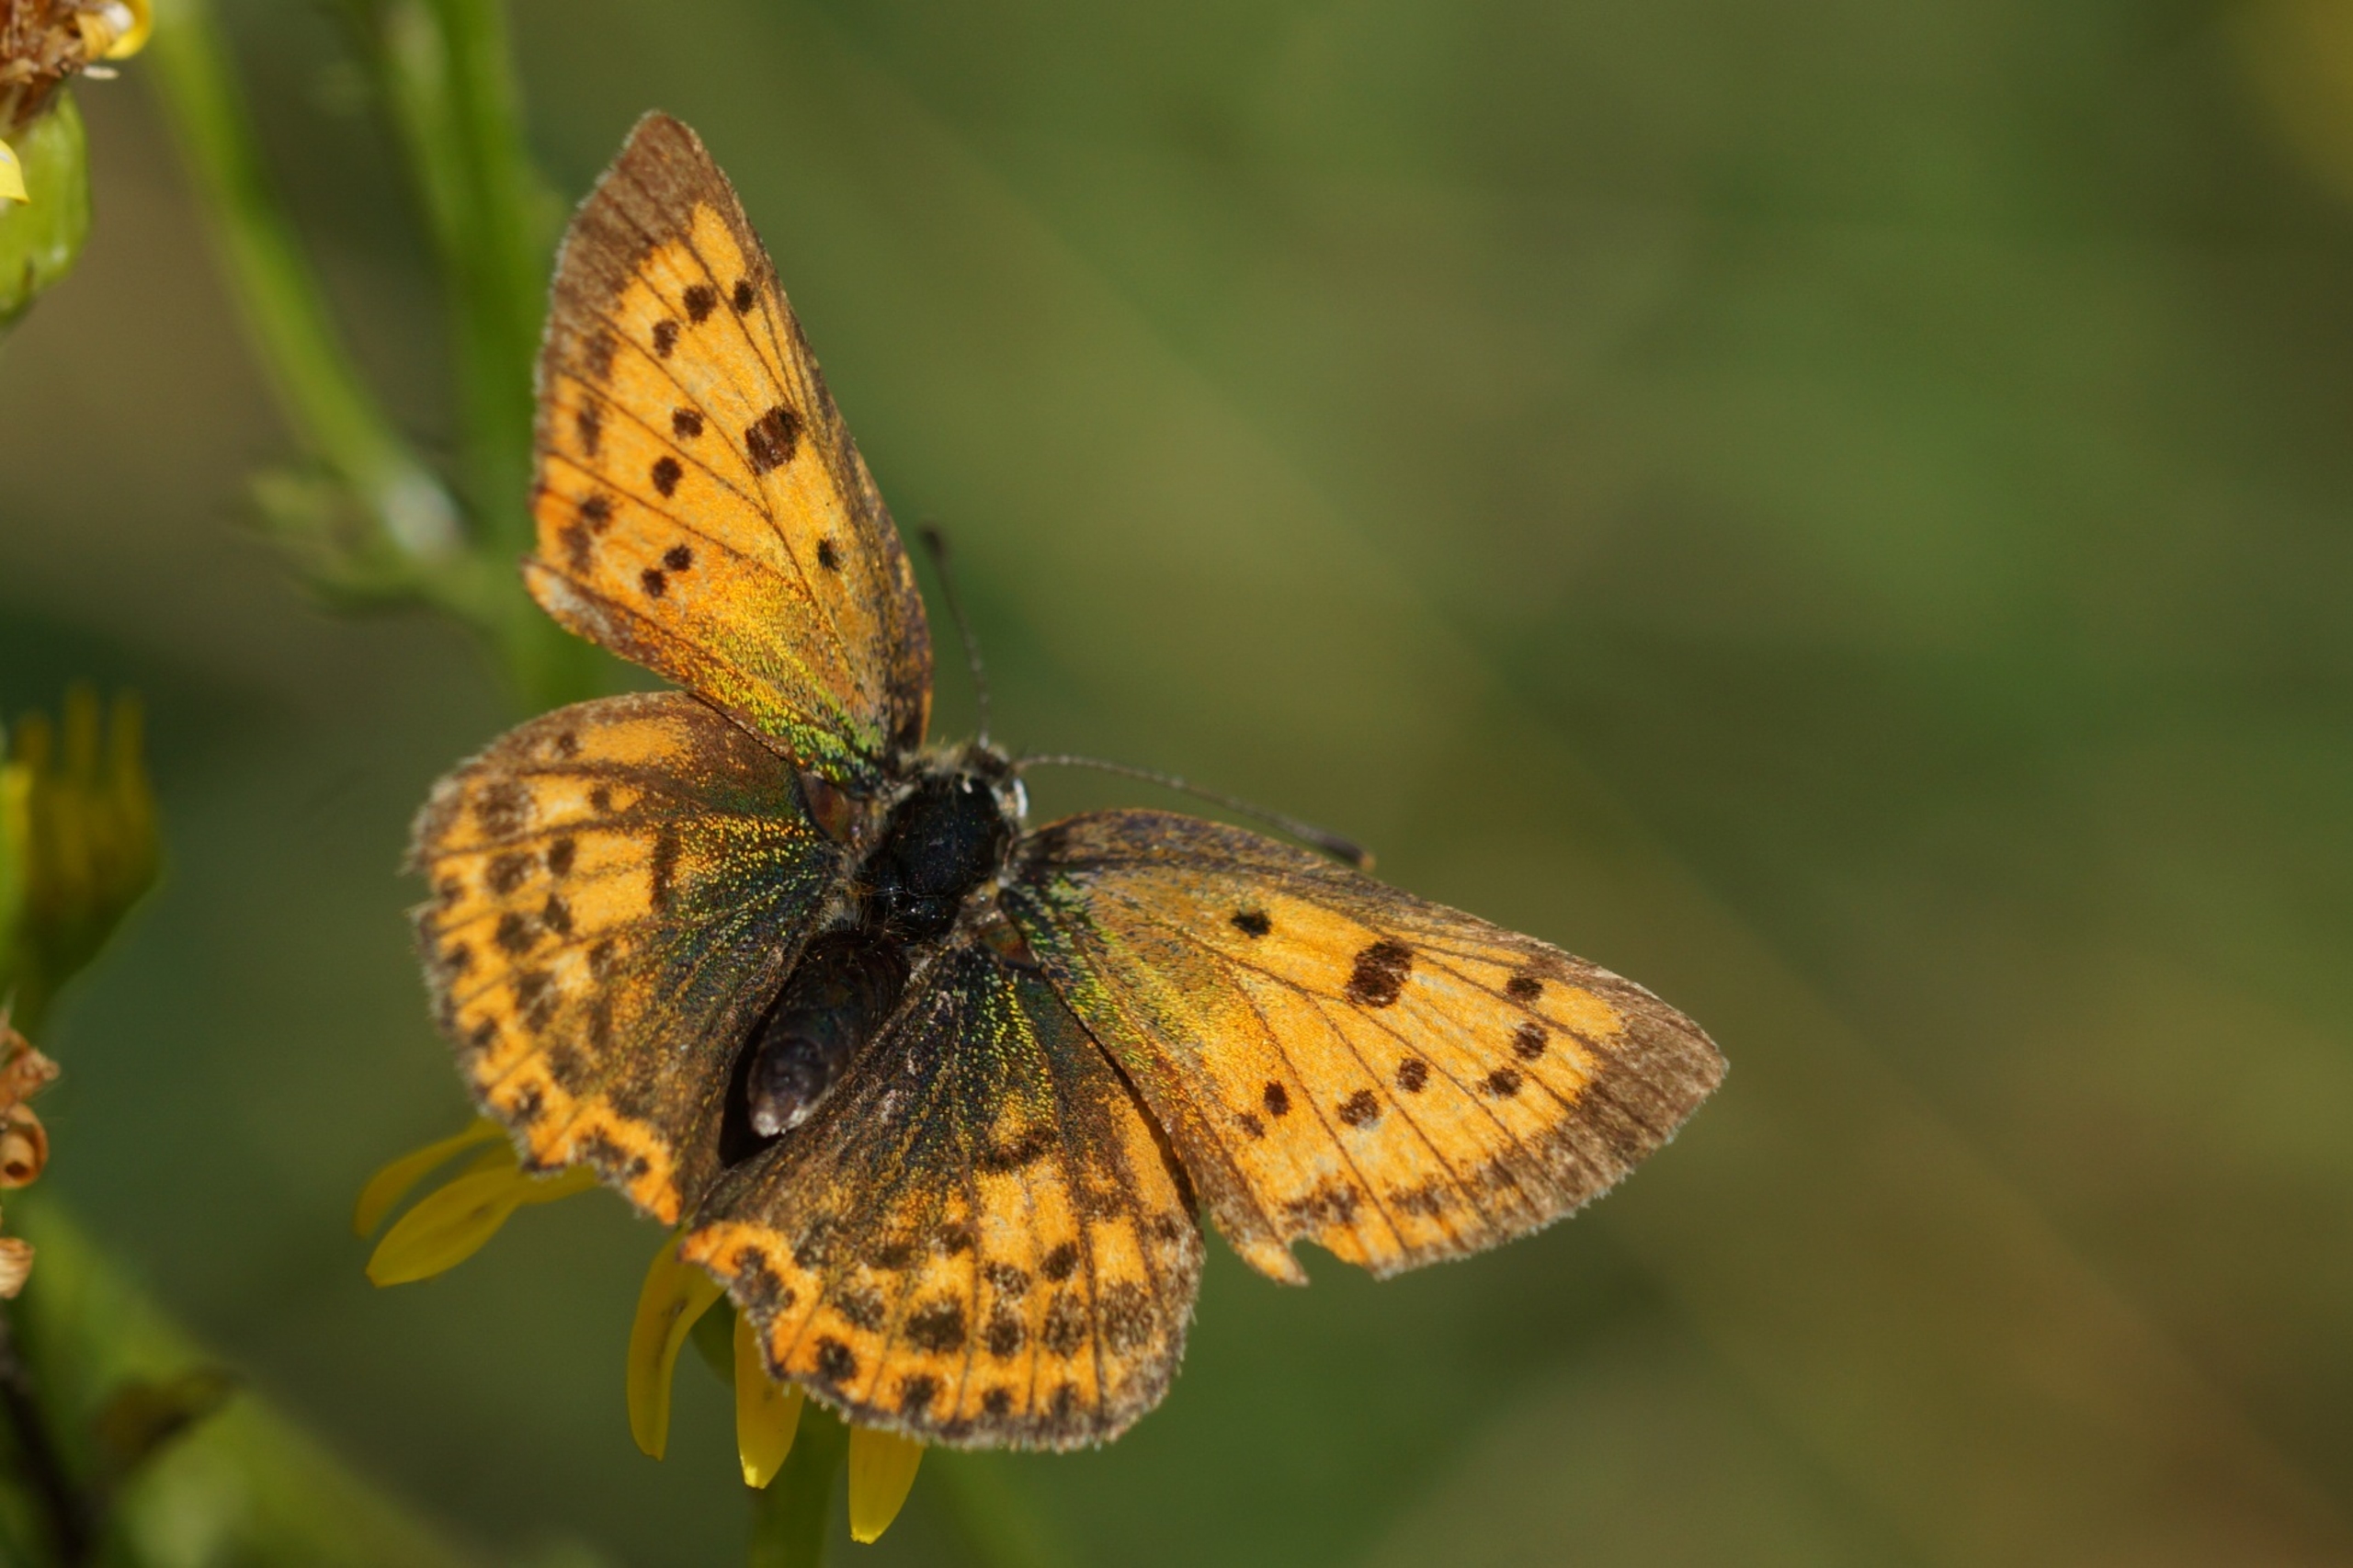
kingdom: Animalia
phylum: Arthropoda
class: Insecta
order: Lepidoptera
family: Lycaenidae
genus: Lycaena
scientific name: Lycaena virgaureae
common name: Dukatsommerfugl
